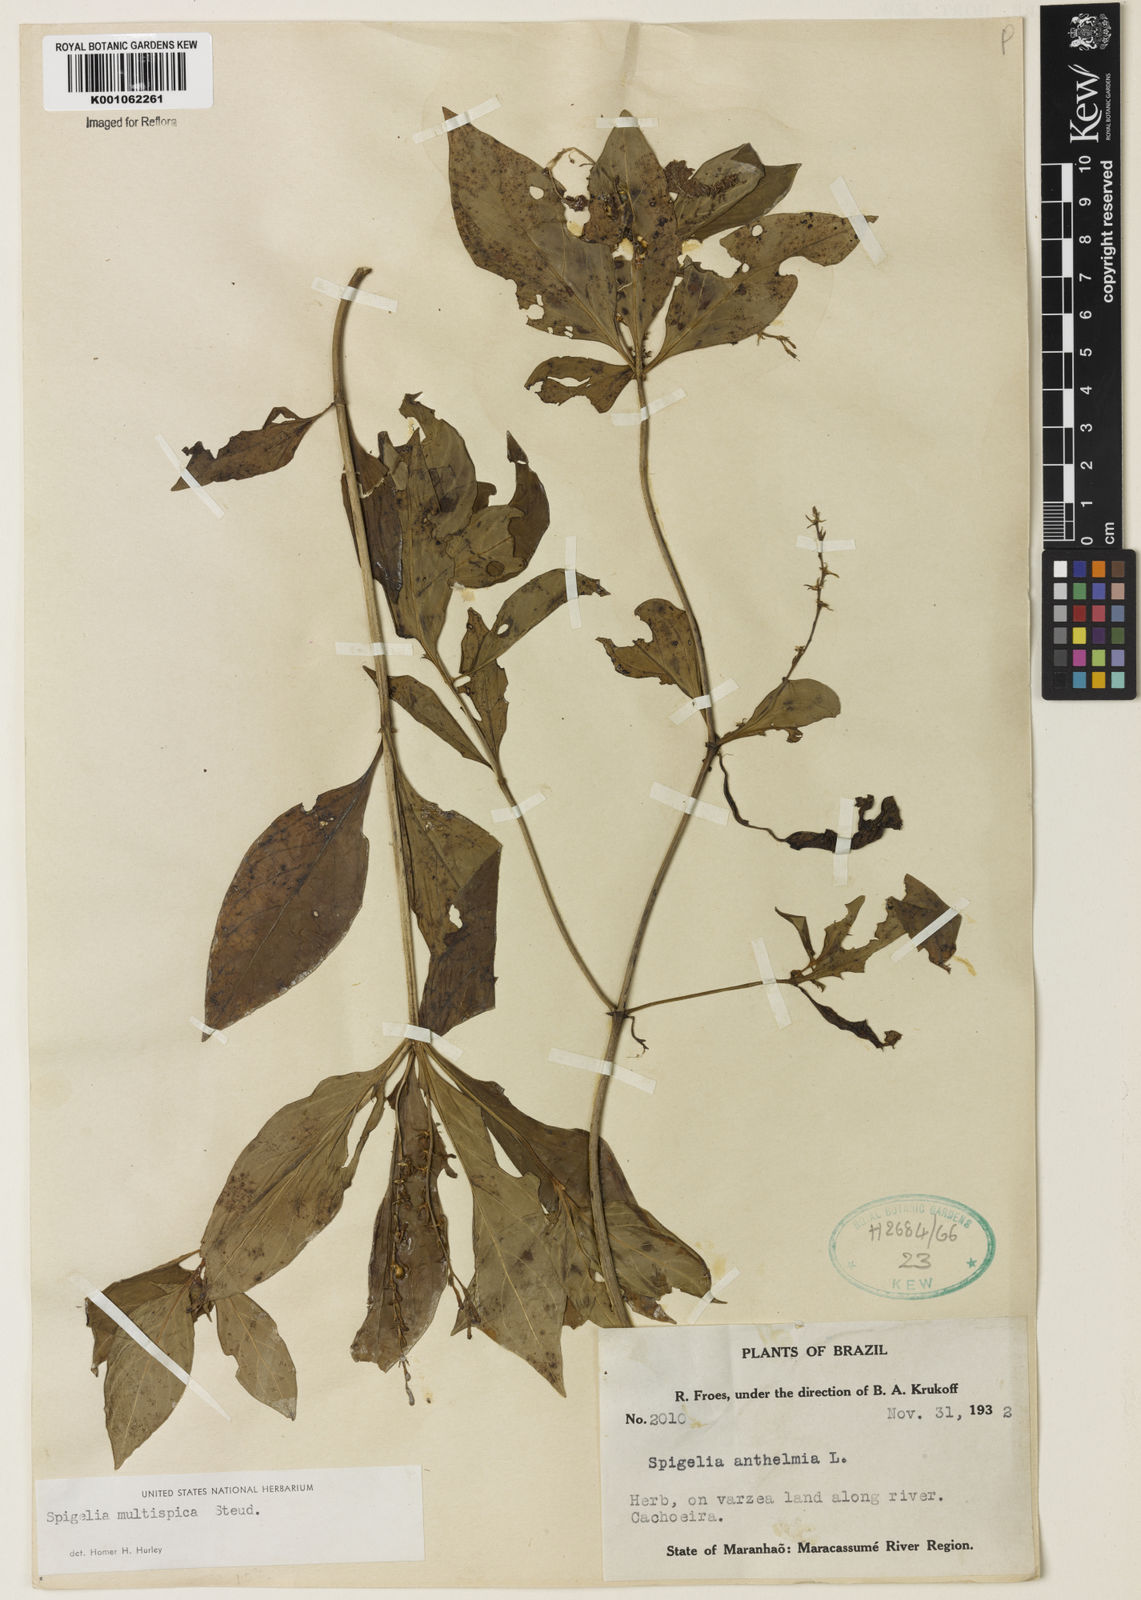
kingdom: Plantae
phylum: Tracheophyta
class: Magnoliopsida
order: Gentianales
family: Loganiaceae
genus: Spigelia
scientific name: Spigelia hamellioides
